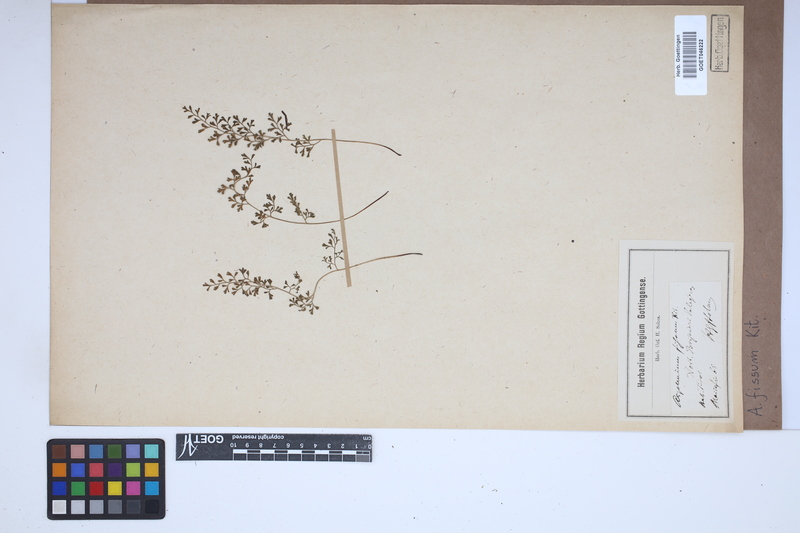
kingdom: Plantae
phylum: Tracheophyta
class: Polypodiopsida
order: Polypodiales
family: Aspleniaceae
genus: Asplenium
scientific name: Asplenium fissum
